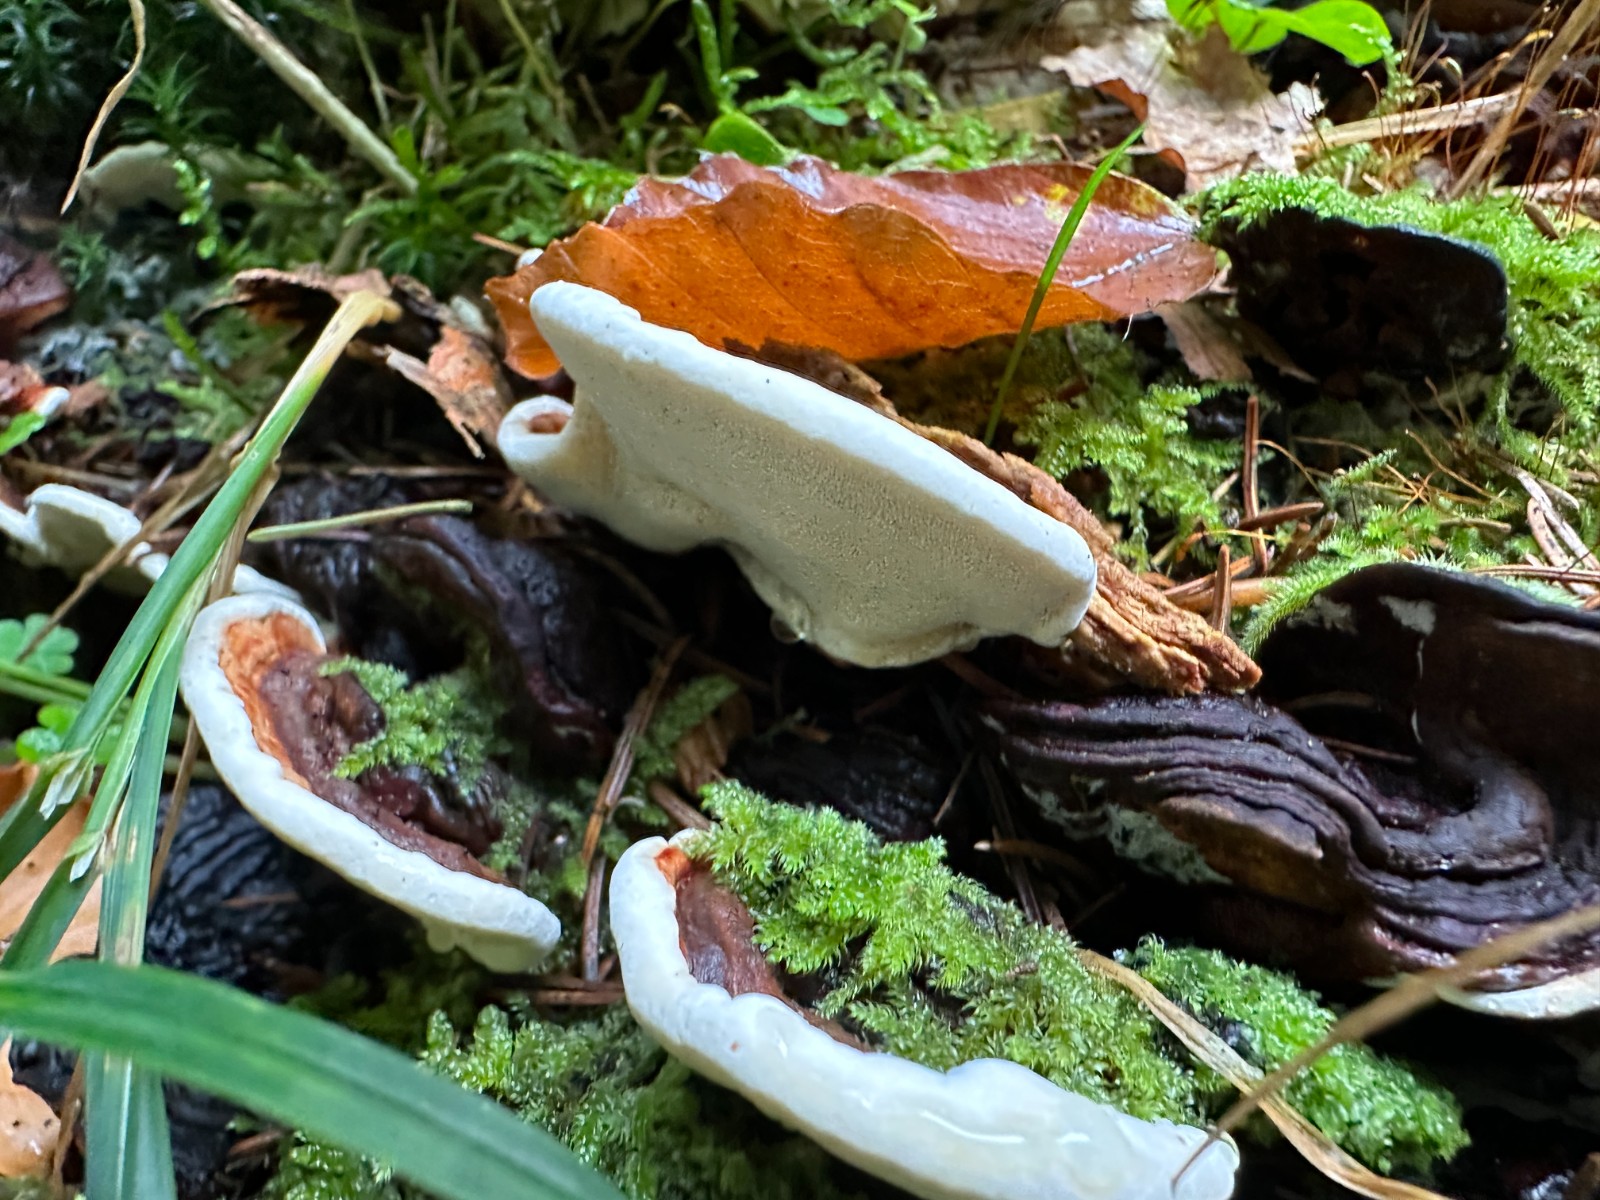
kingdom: Fungi
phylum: Basidiomycota
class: Agaricomycetes
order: Russulales
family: Bondarzewiaceae
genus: Heterobasidion
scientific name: Heterobasidion annosum
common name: almindelig rodfordærver
